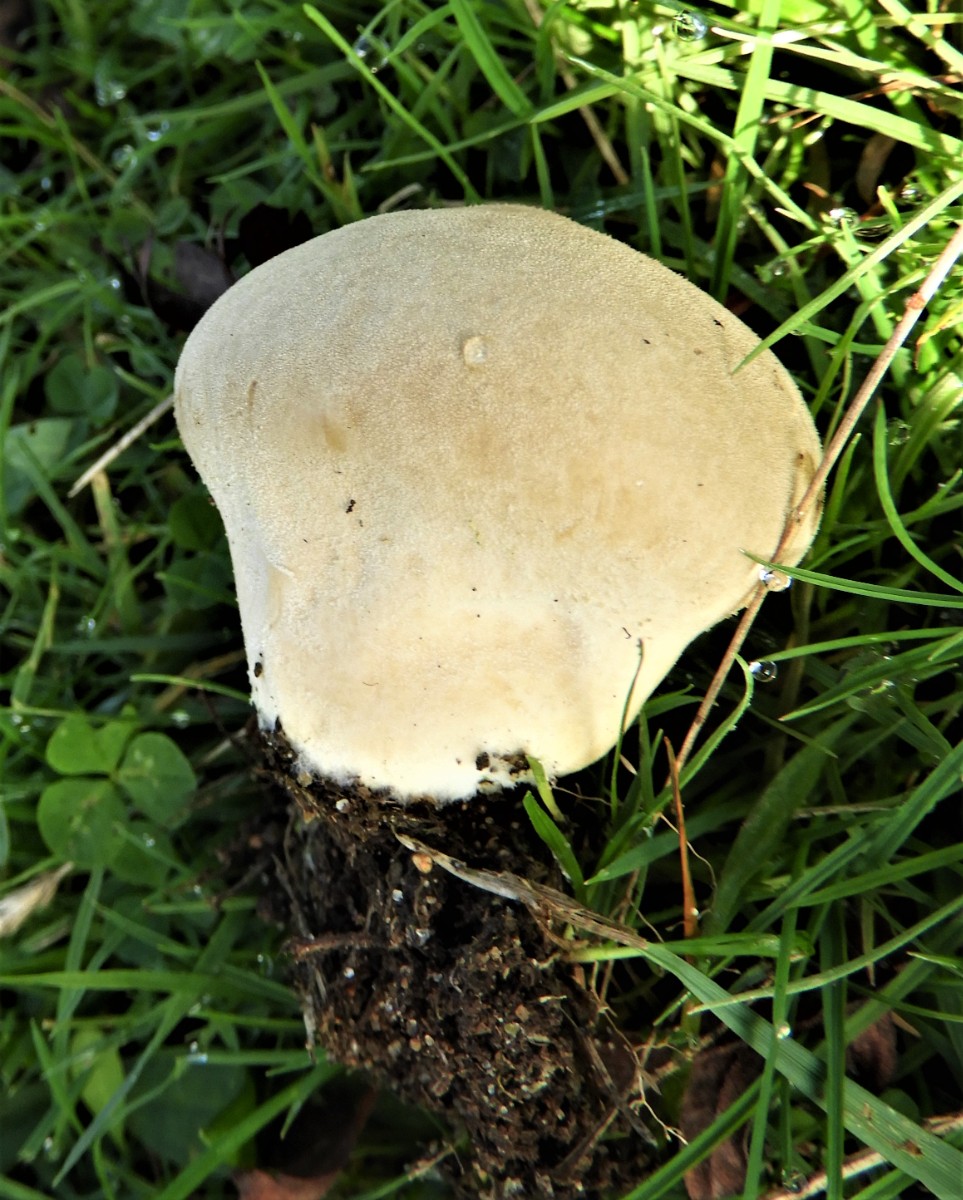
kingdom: Fungi
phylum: Basidiomycota
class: Agaricomycetes
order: Agaricales
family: Lycoperdaceae
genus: Lycoperdon
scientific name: Lycoperdon pratense
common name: flad støvbold
